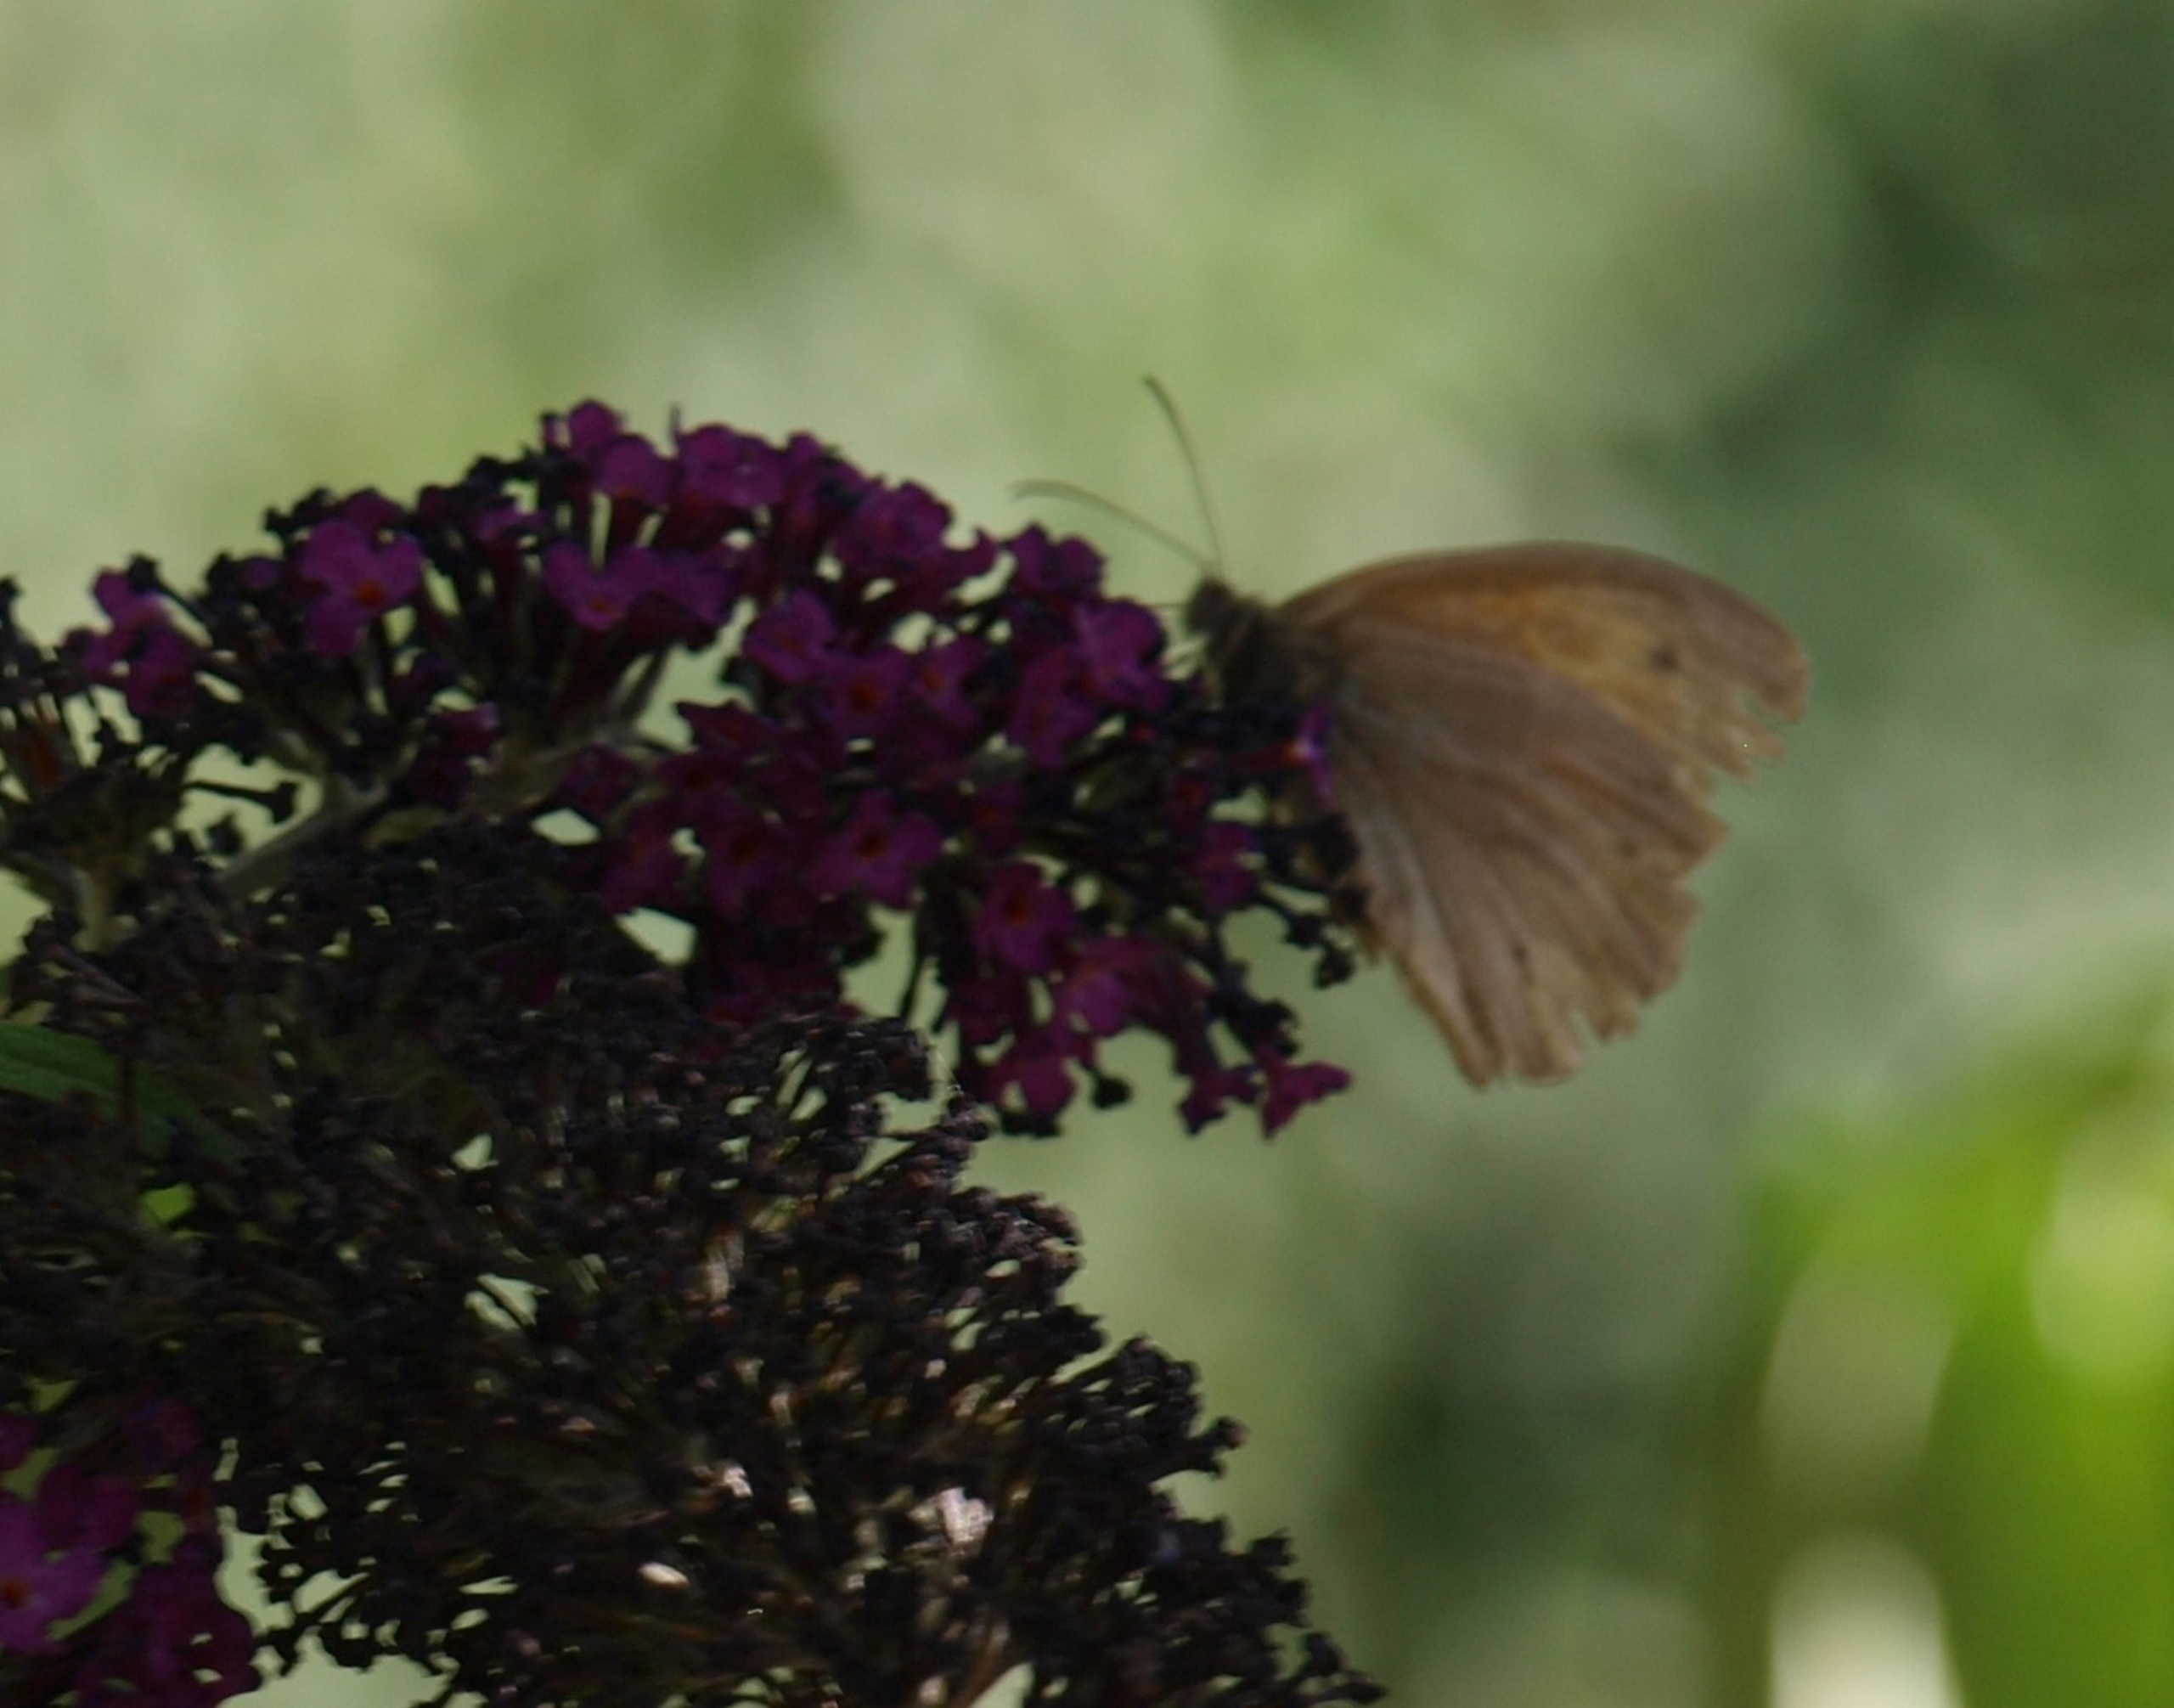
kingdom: Animalia
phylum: Arthropoda
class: Insecta
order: Lepidoptera
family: Nymphalidae
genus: Maniola
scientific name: Maniola jurtina
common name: Græsrandøje
